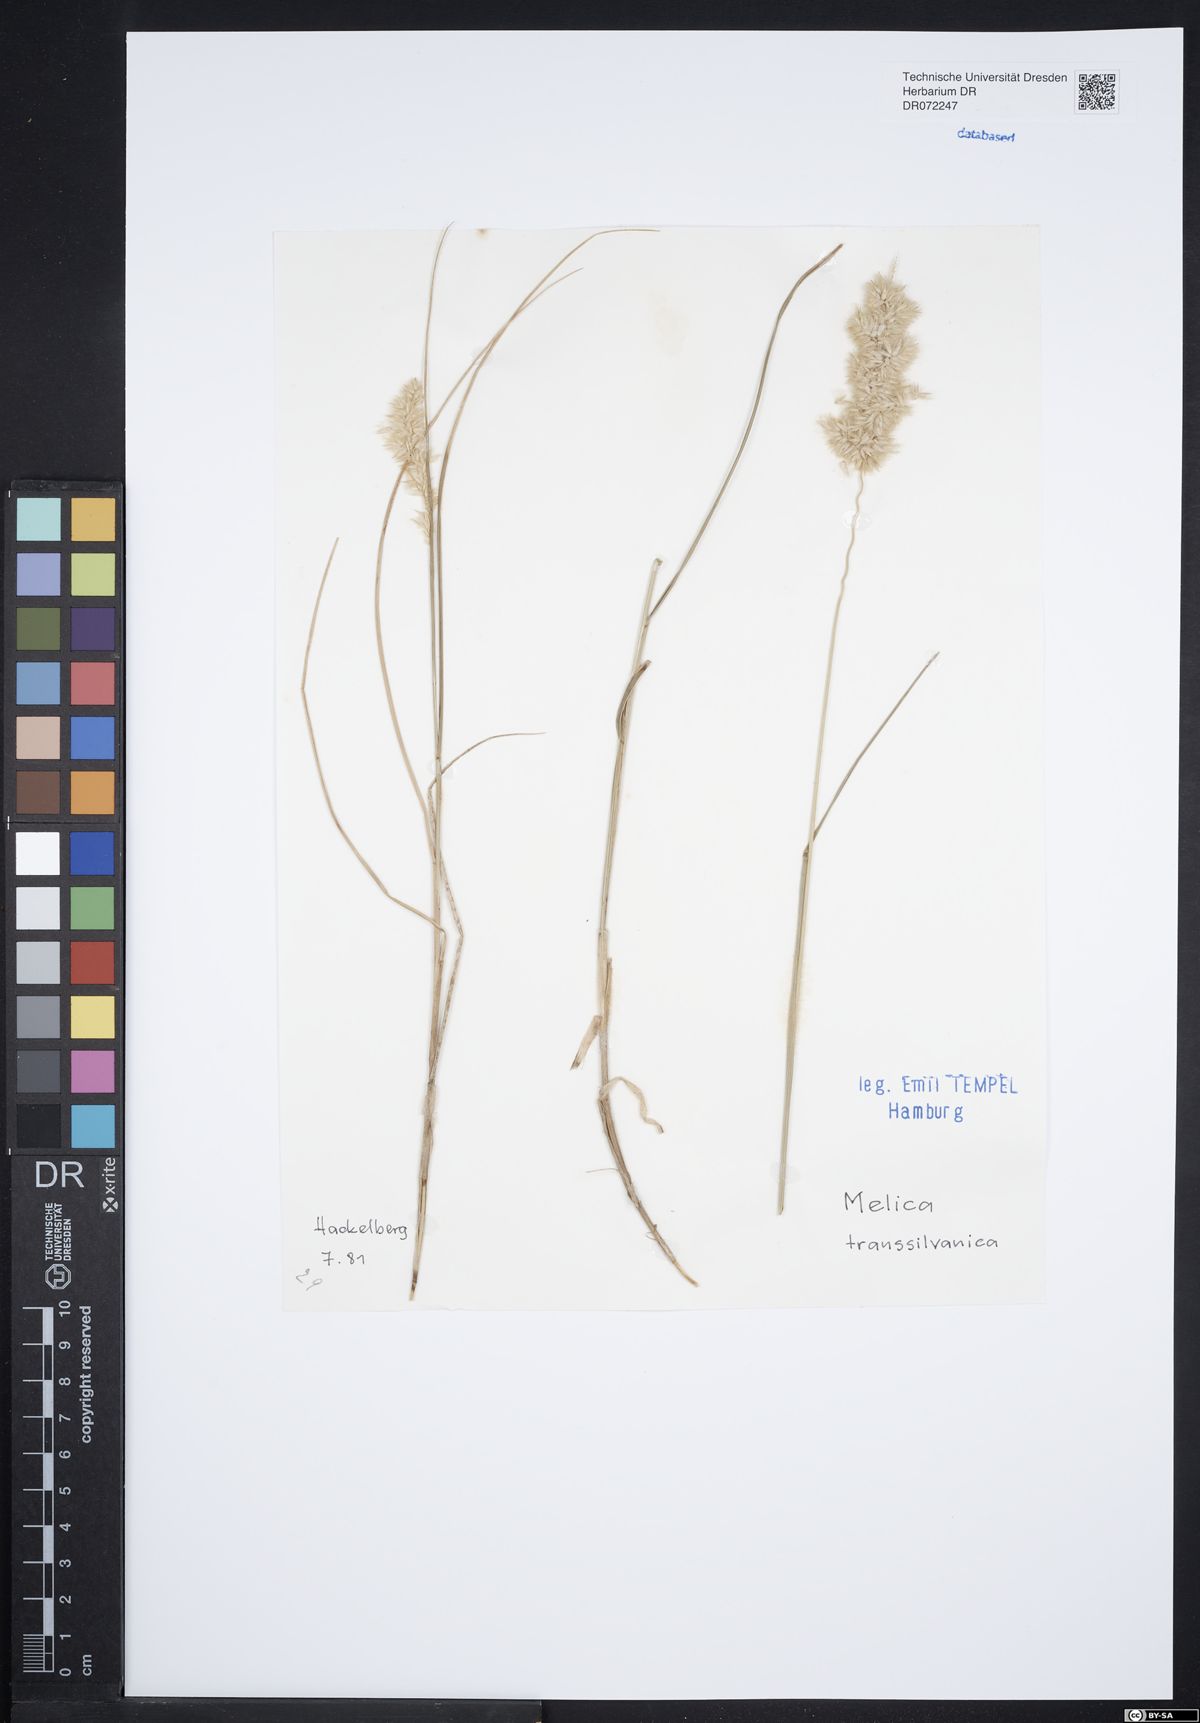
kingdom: Plantae
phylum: Tracheophyta
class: Liliopsida
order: Poales
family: Poaceae
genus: Melica
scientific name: Melica transsilvanica
